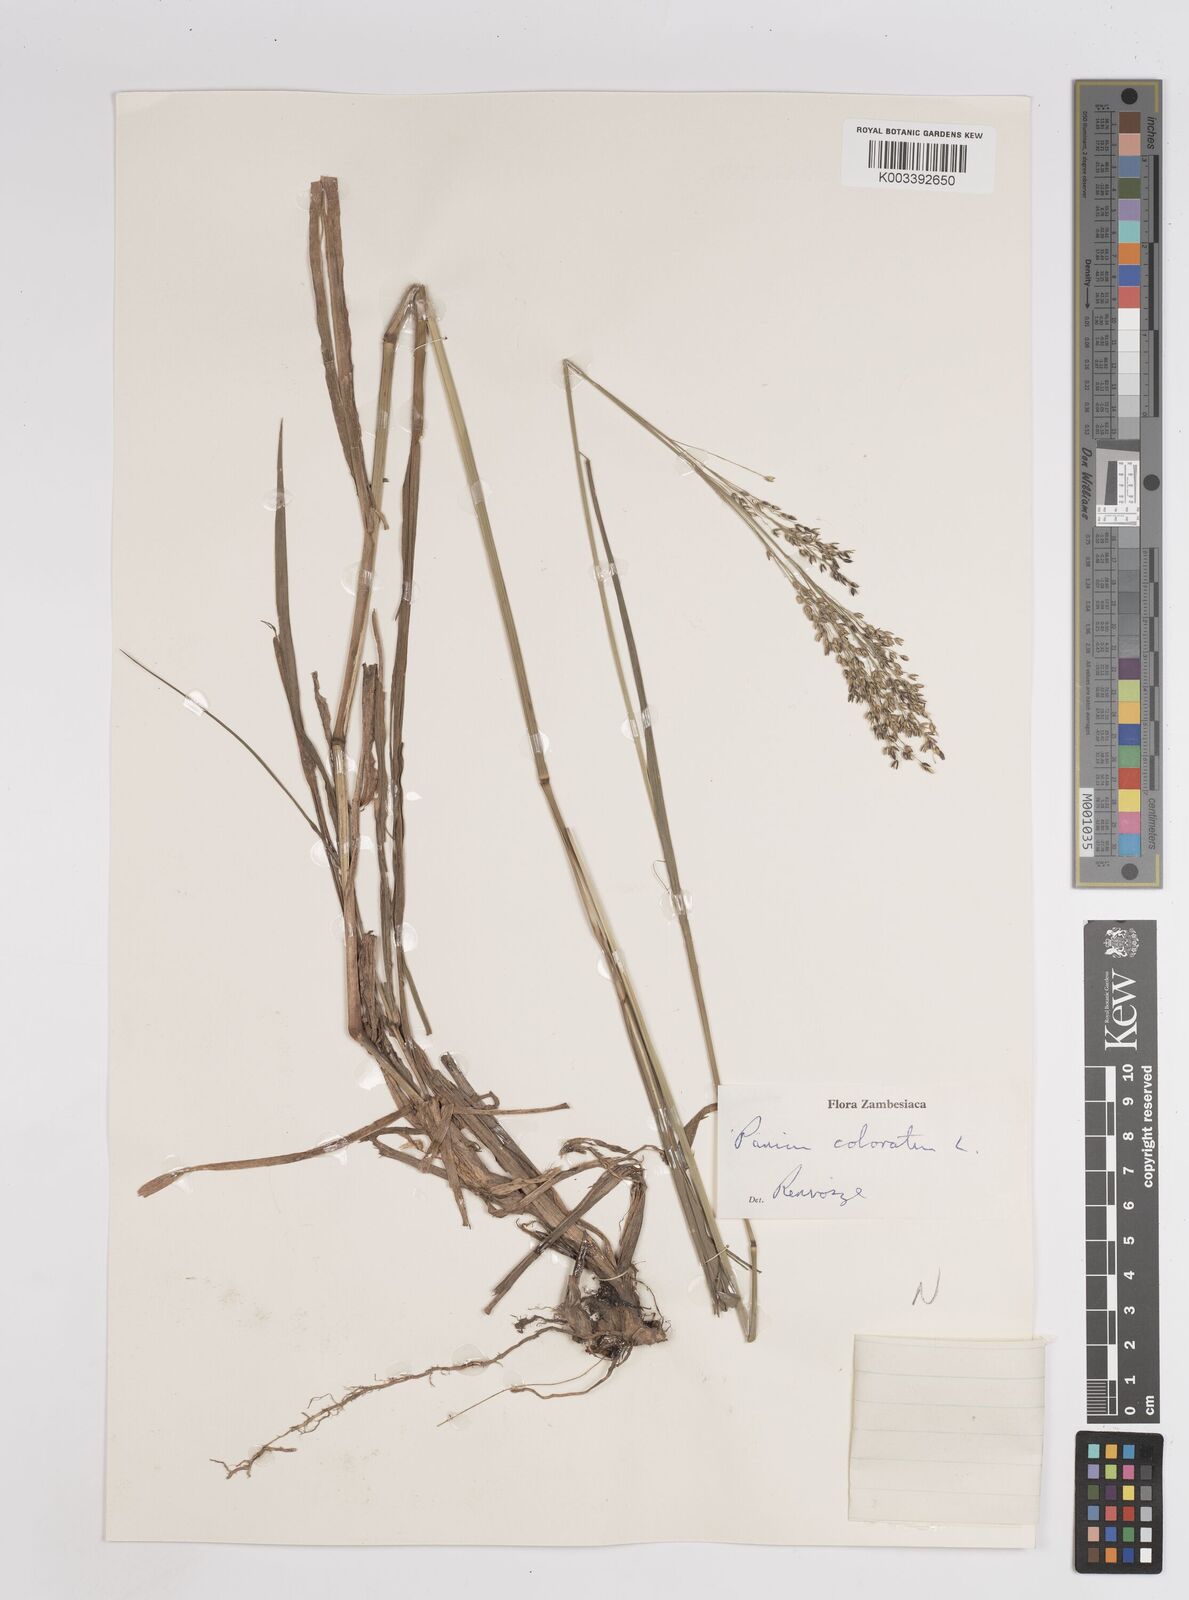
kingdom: Plantae
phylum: Tracheophyta
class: Liliopsida
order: Poales
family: Poaceae
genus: Panicum
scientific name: Panicum
